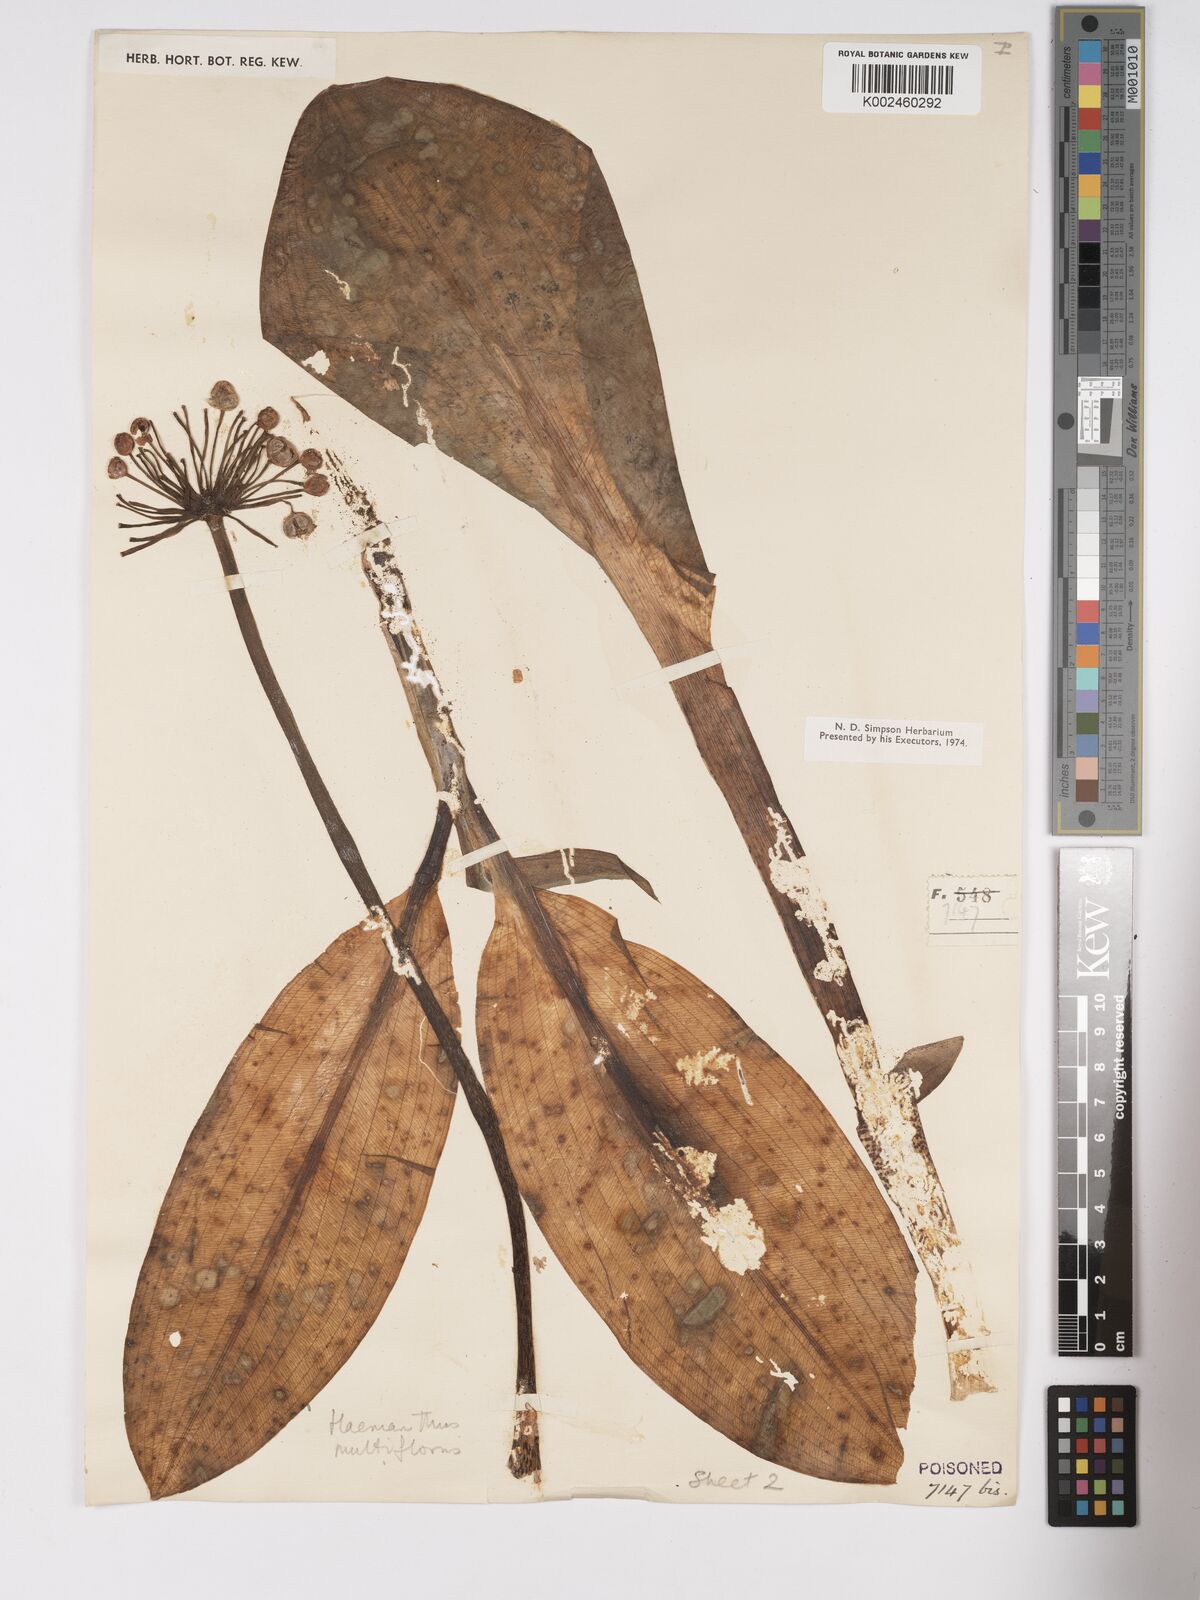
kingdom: Plantae
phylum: Tracheophyta
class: Liliopsida
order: Asparagales
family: Amaryllidaceae
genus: Scadoxus
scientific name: Scadoxus multiflorus
